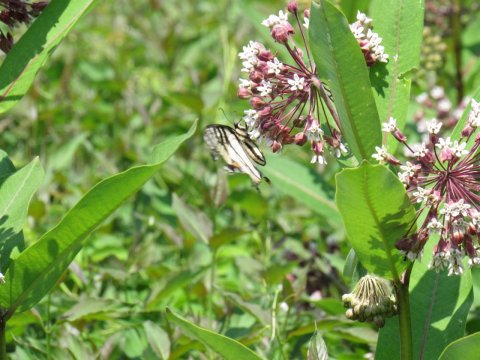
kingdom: Animalia
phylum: Arthropoda
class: Insecta
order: Lepidoptera
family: Papilionidae
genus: Pterourus
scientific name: Pterourus
